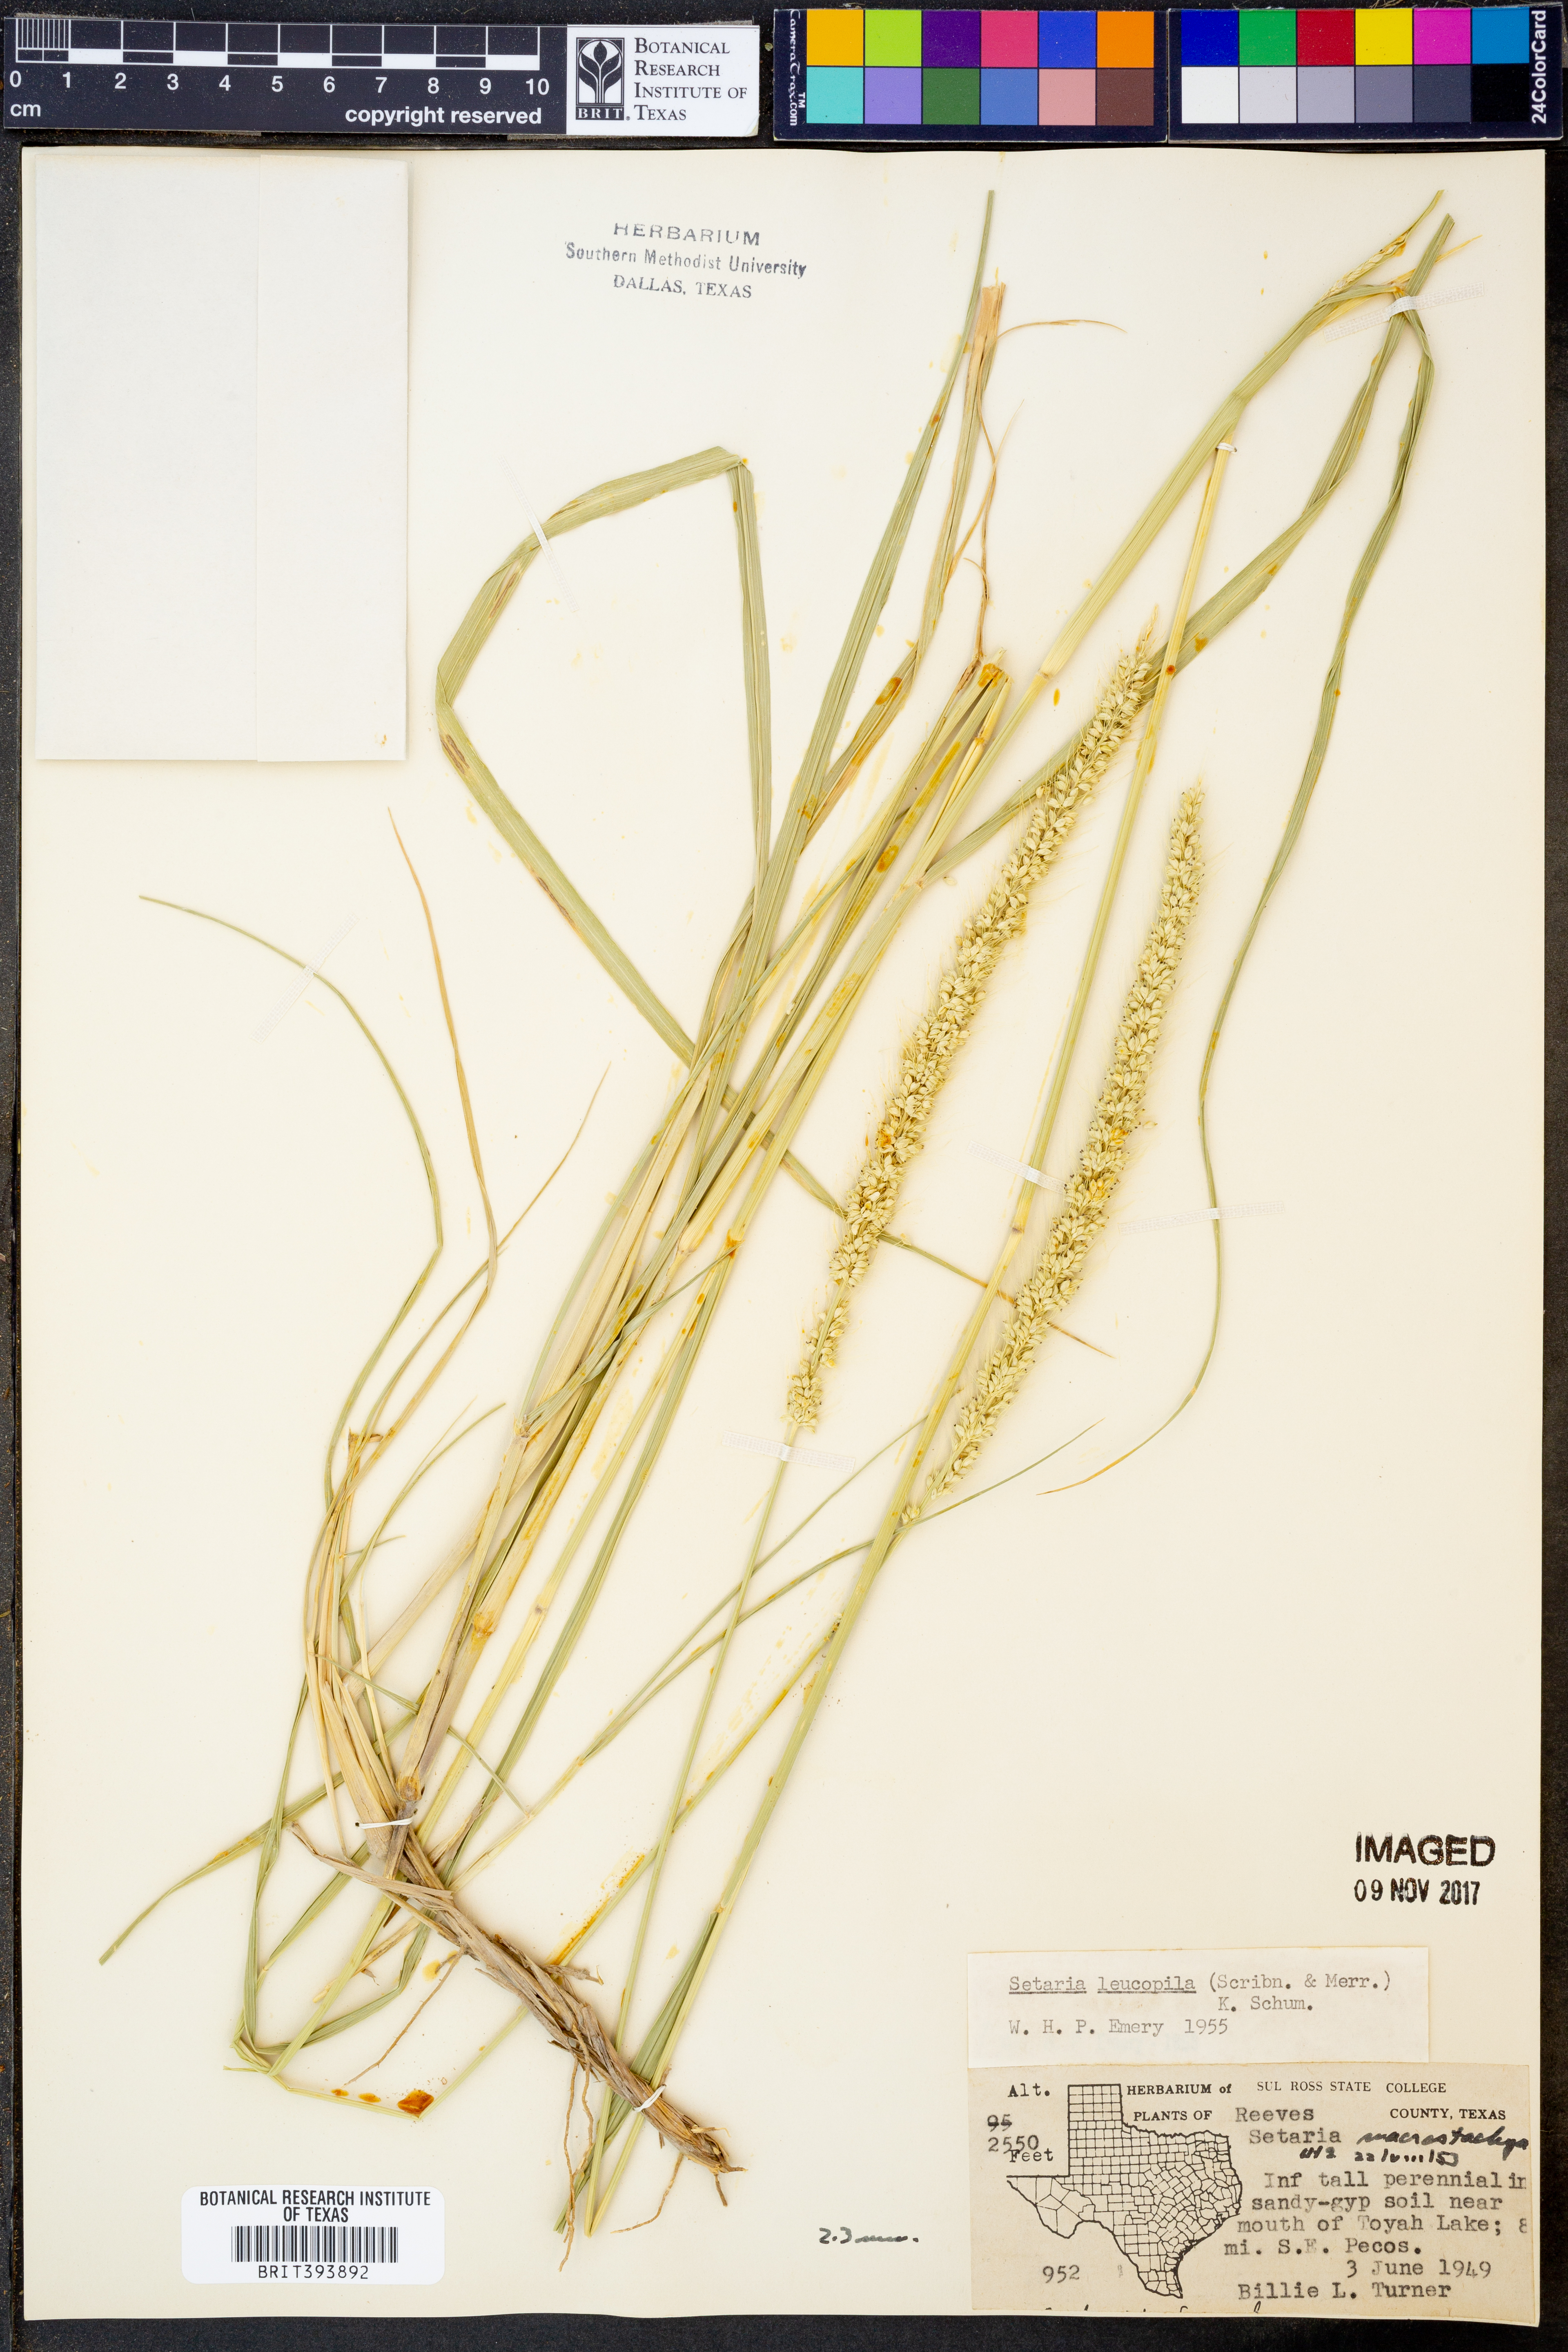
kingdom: Plantae
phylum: Tracheophyta
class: Liliopsida
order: Poales
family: Poaceae
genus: Setaria
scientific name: Setaria leucopila
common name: Plains bristle grass
